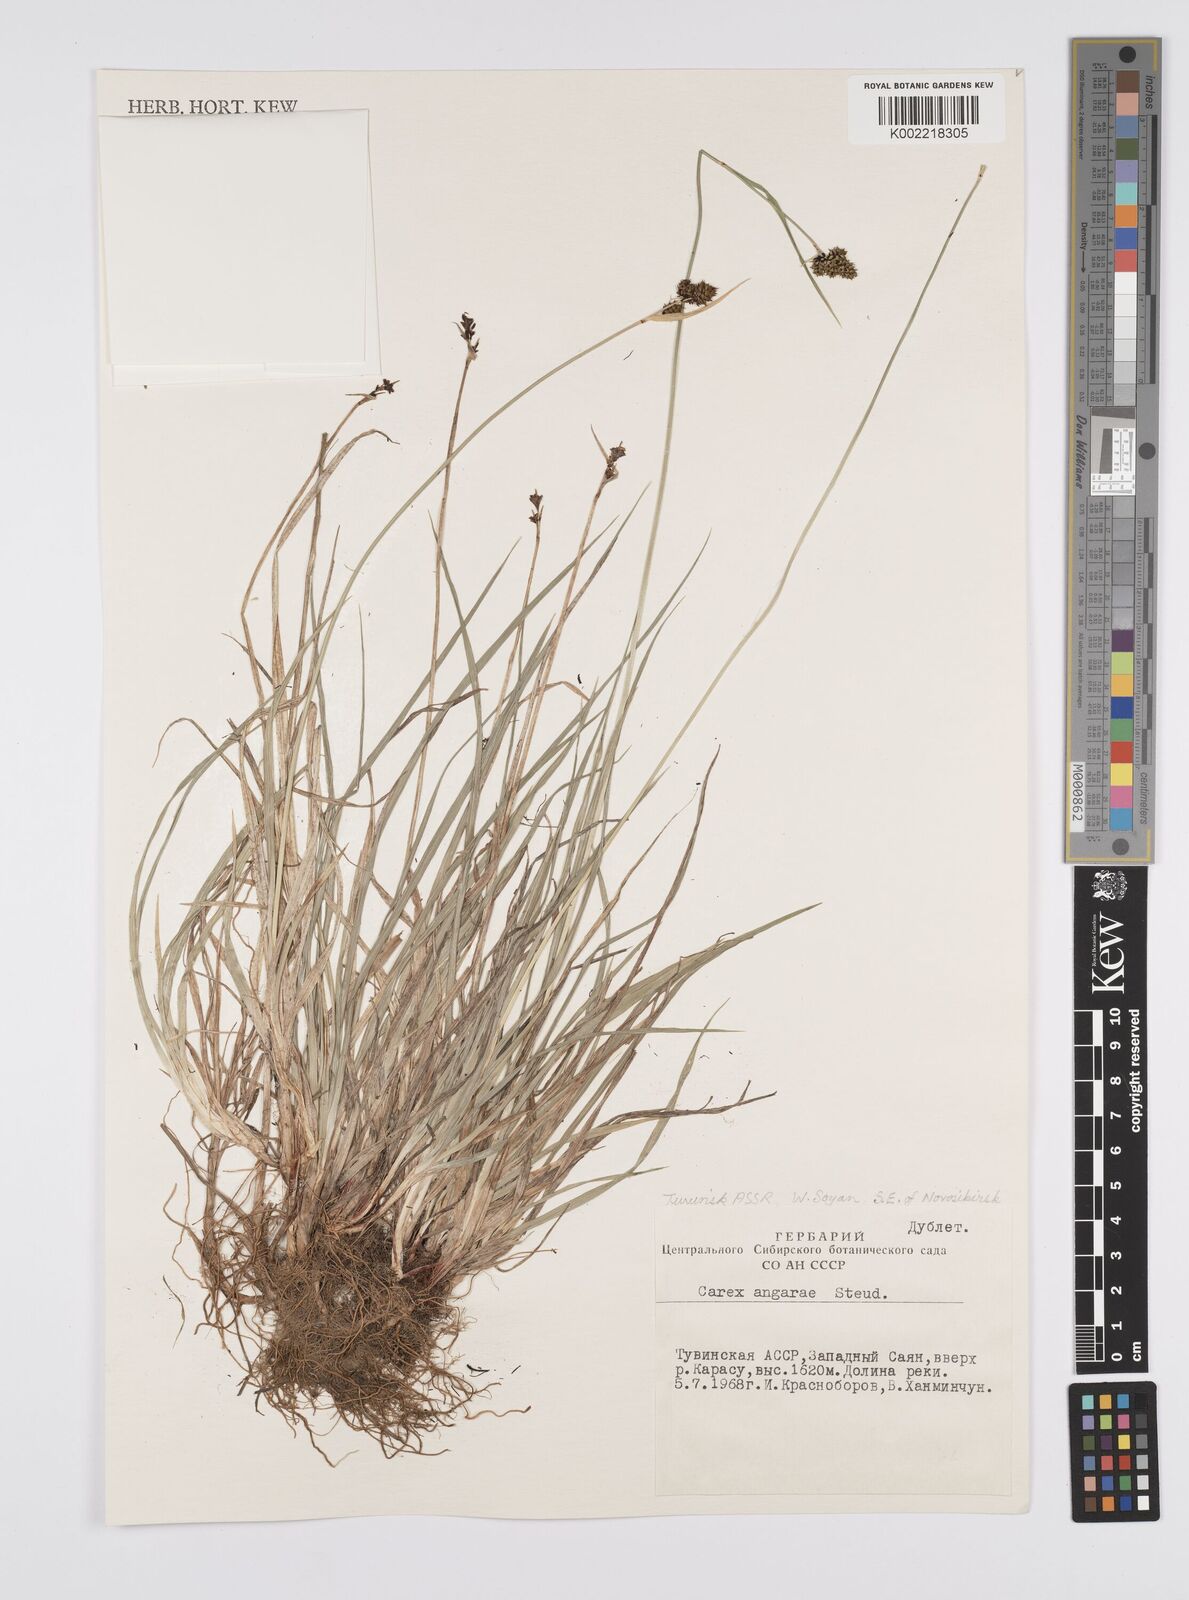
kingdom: Plantae
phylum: Tracheophyta
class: Liliopsida
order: Poales
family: Cyperaceae
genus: Carex
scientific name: Carex nigra
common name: Common sedge
